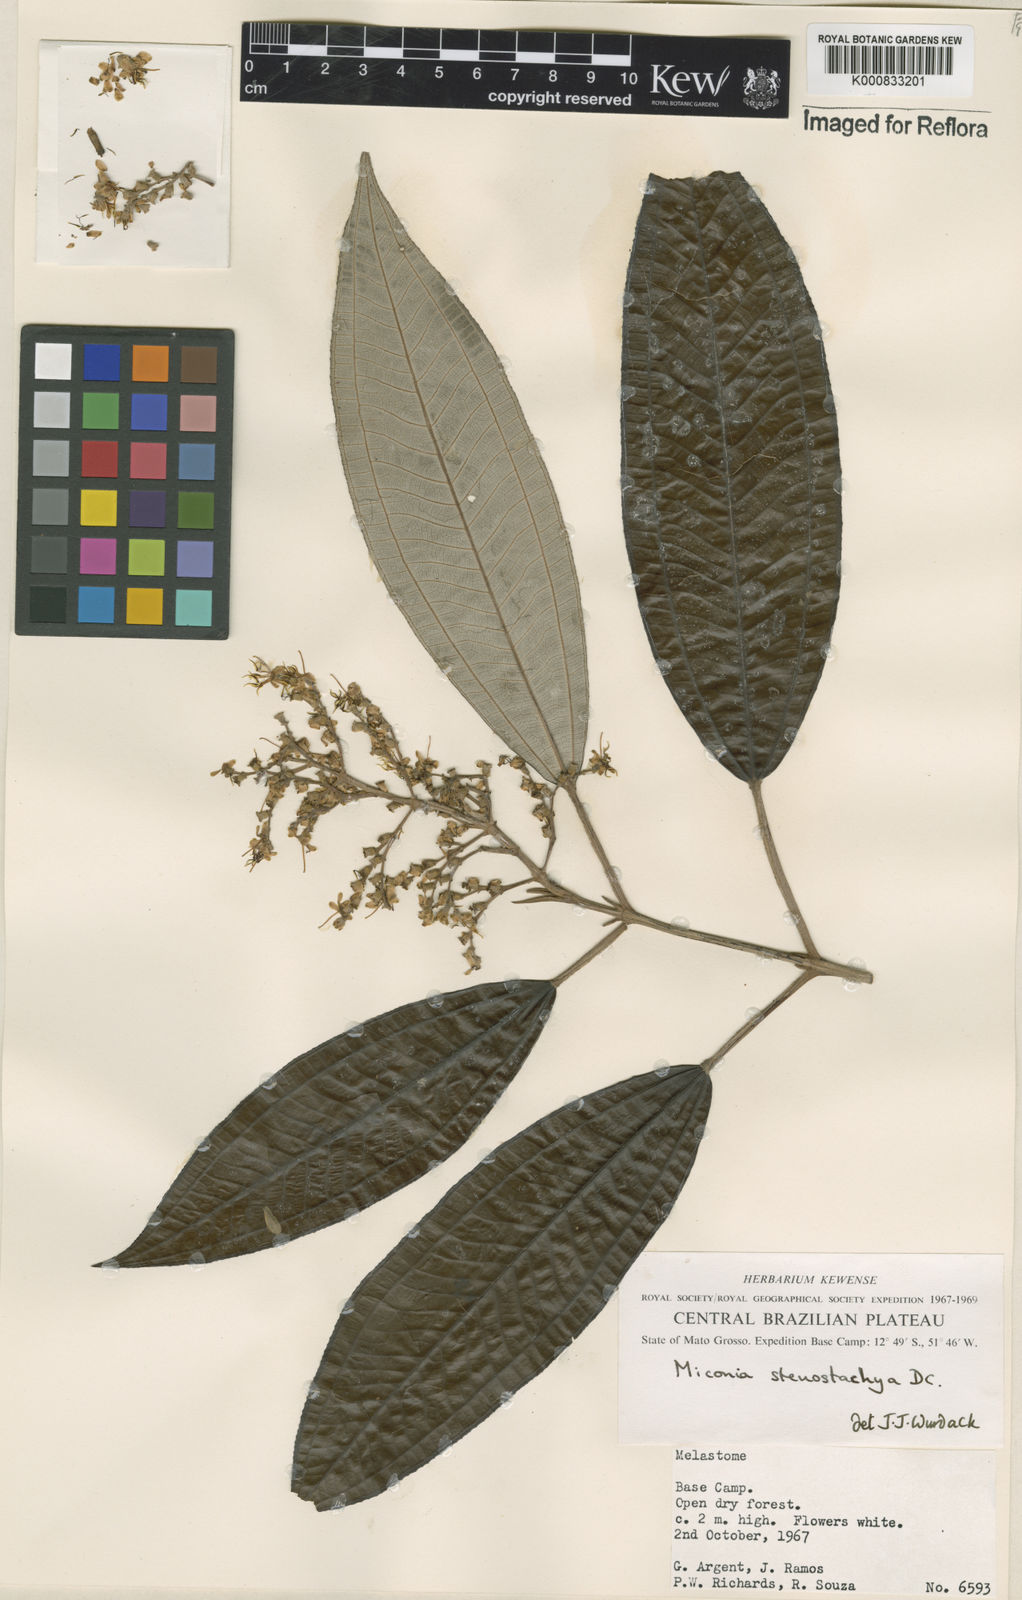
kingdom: Plantae
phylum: Tracheophyta
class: Magnoliopsida
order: Myrtales
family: Melastomataceae
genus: Miconia
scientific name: Miconia stenostachya
